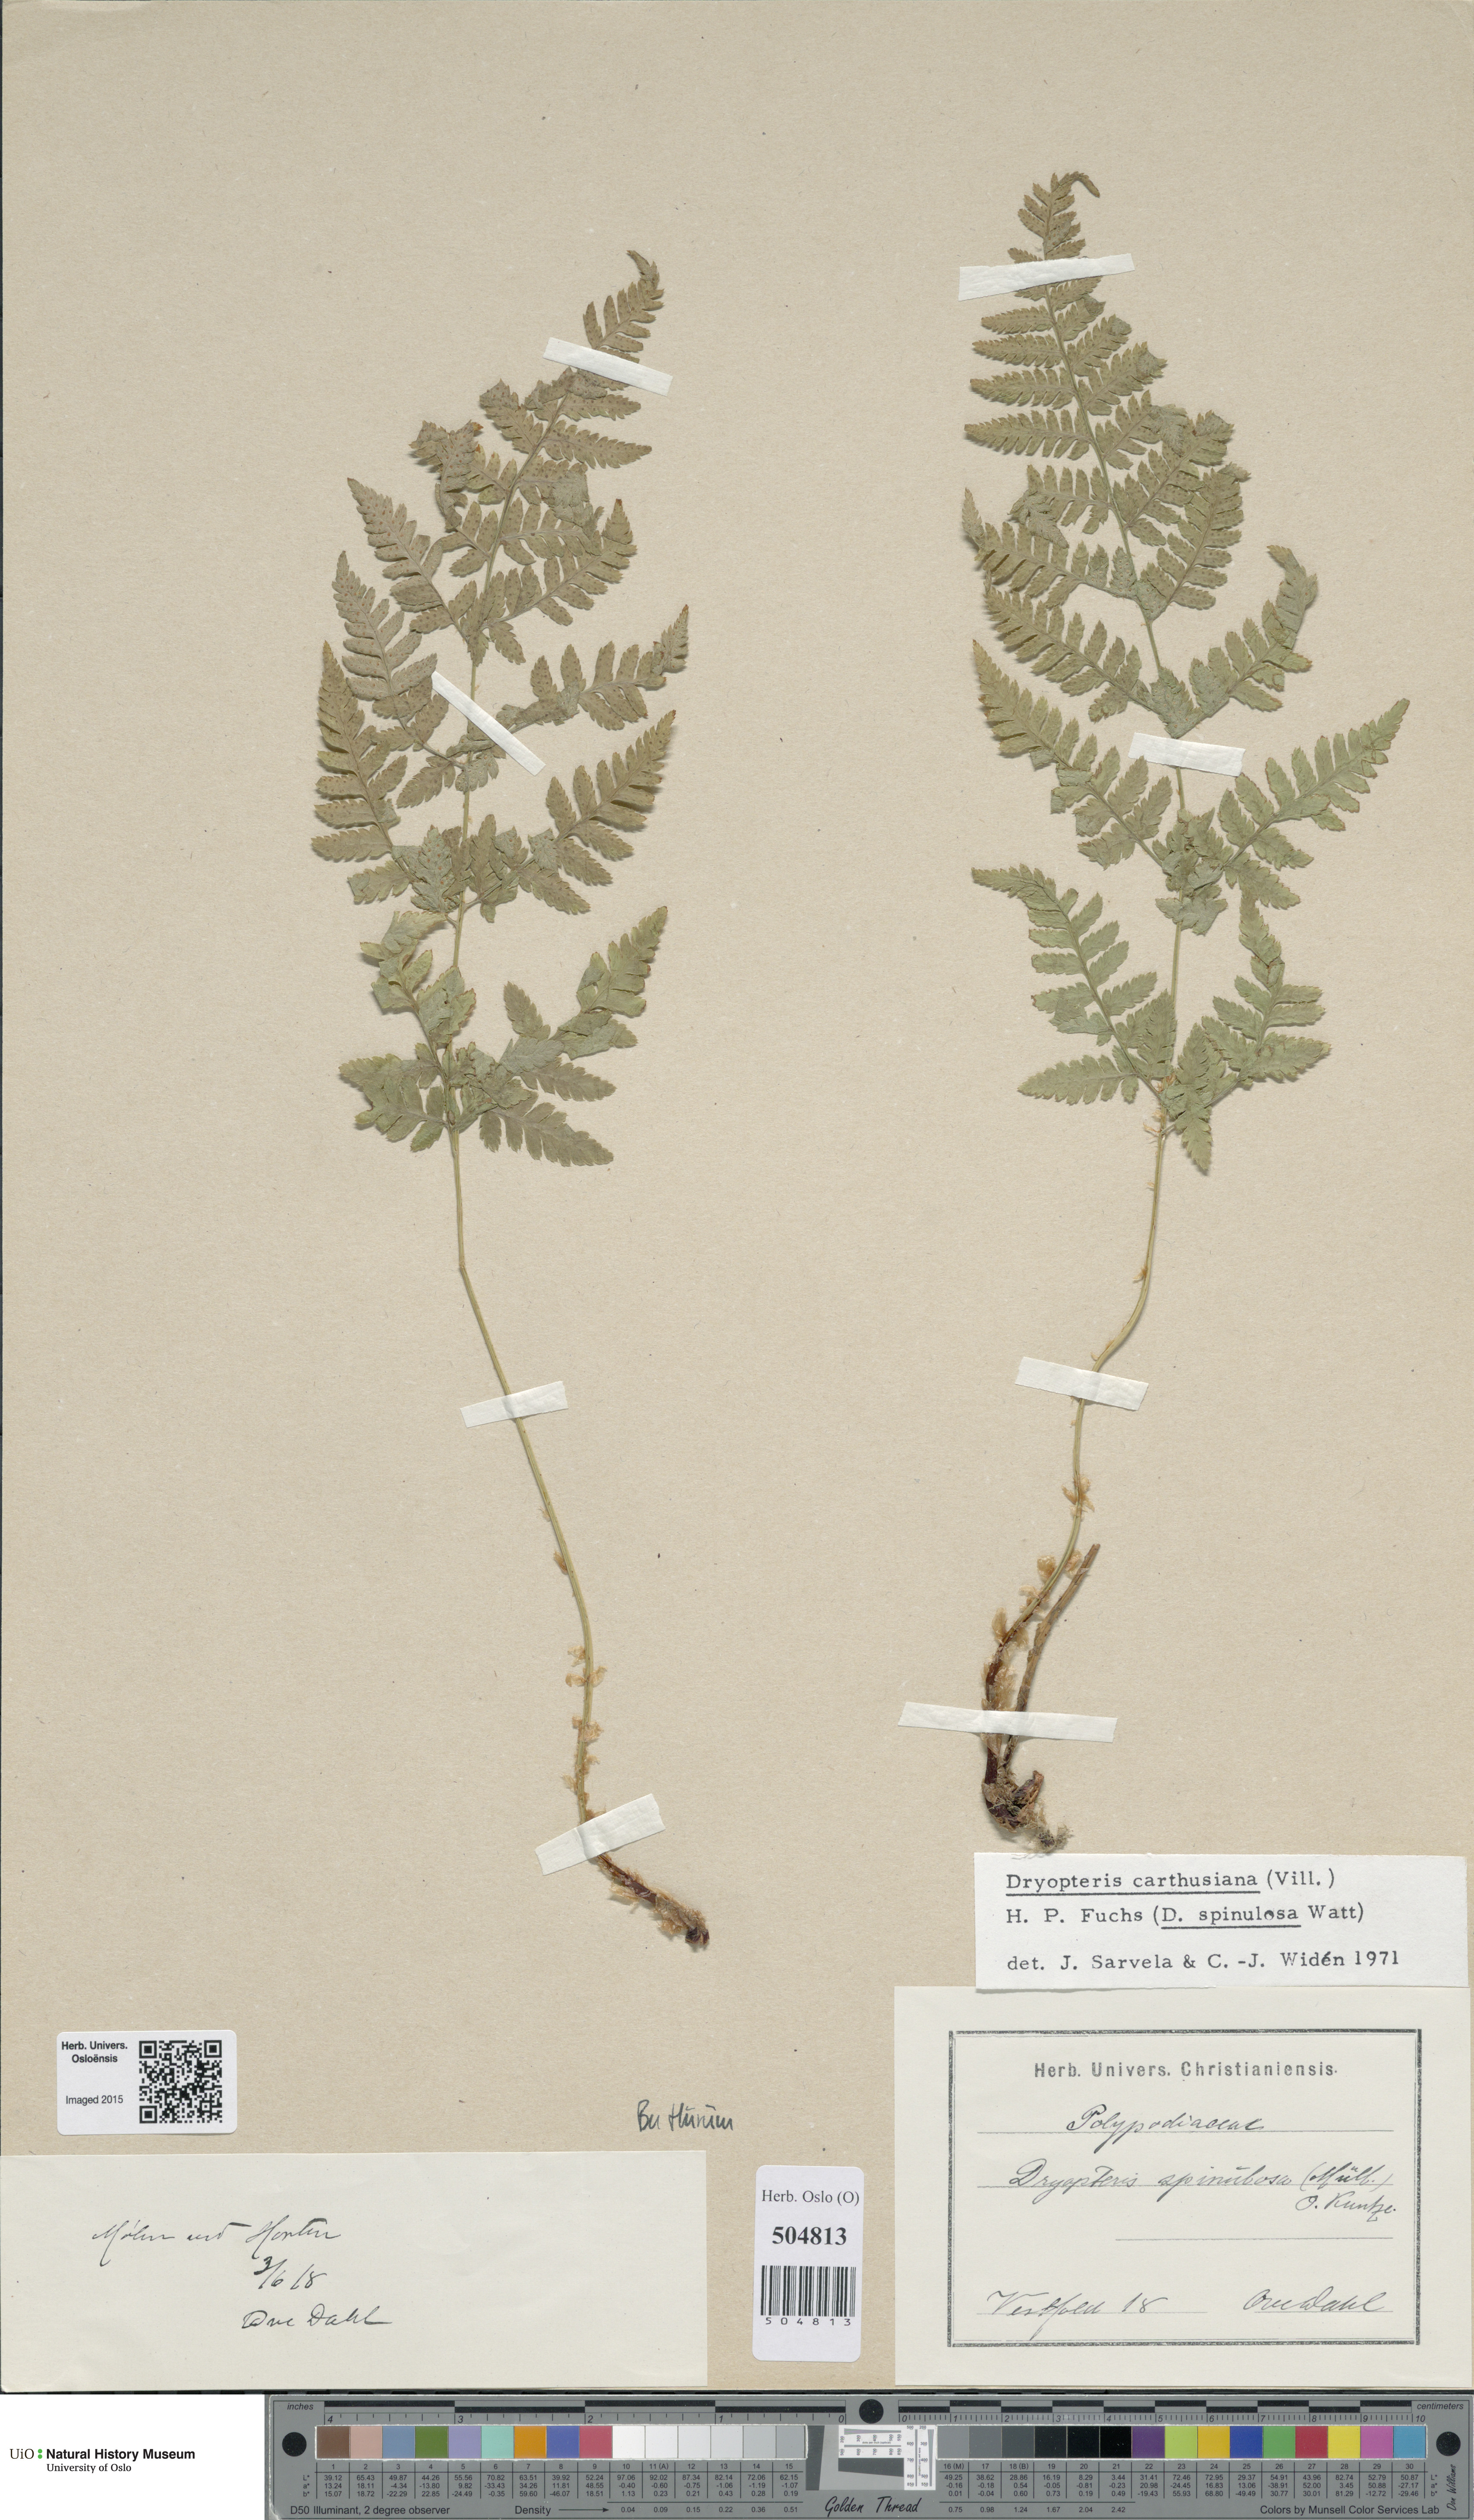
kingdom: Plantae
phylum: Tracheophyta
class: Polypodiopsida
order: Polypodiales
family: Dryopteridaceae
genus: Dryopteris
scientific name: Dryopteris carthusiana
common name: Narrow buckler-fern
